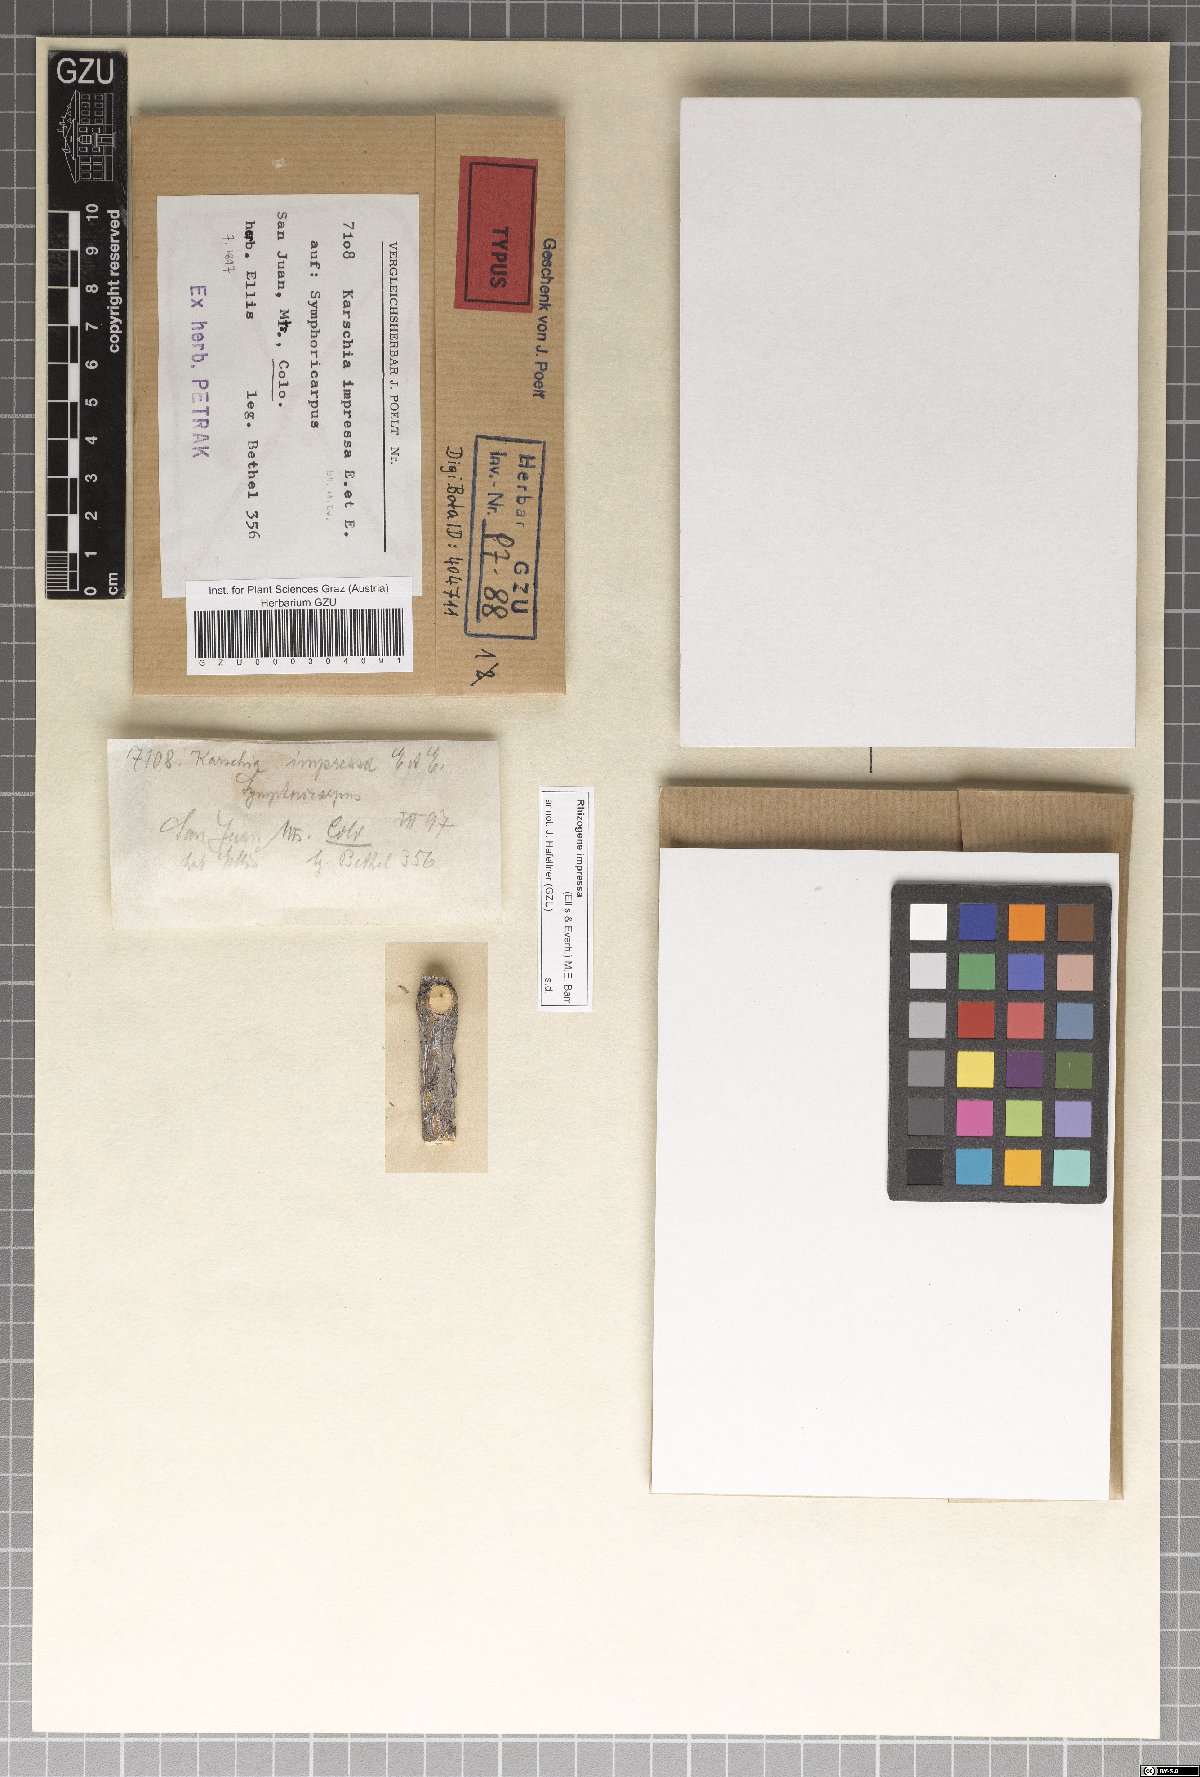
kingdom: Fungi
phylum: Ascomycota
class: Dothideomycetes
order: Venturiales
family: Venturiaceae
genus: Rhizogene
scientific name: Rhizogene impressa
